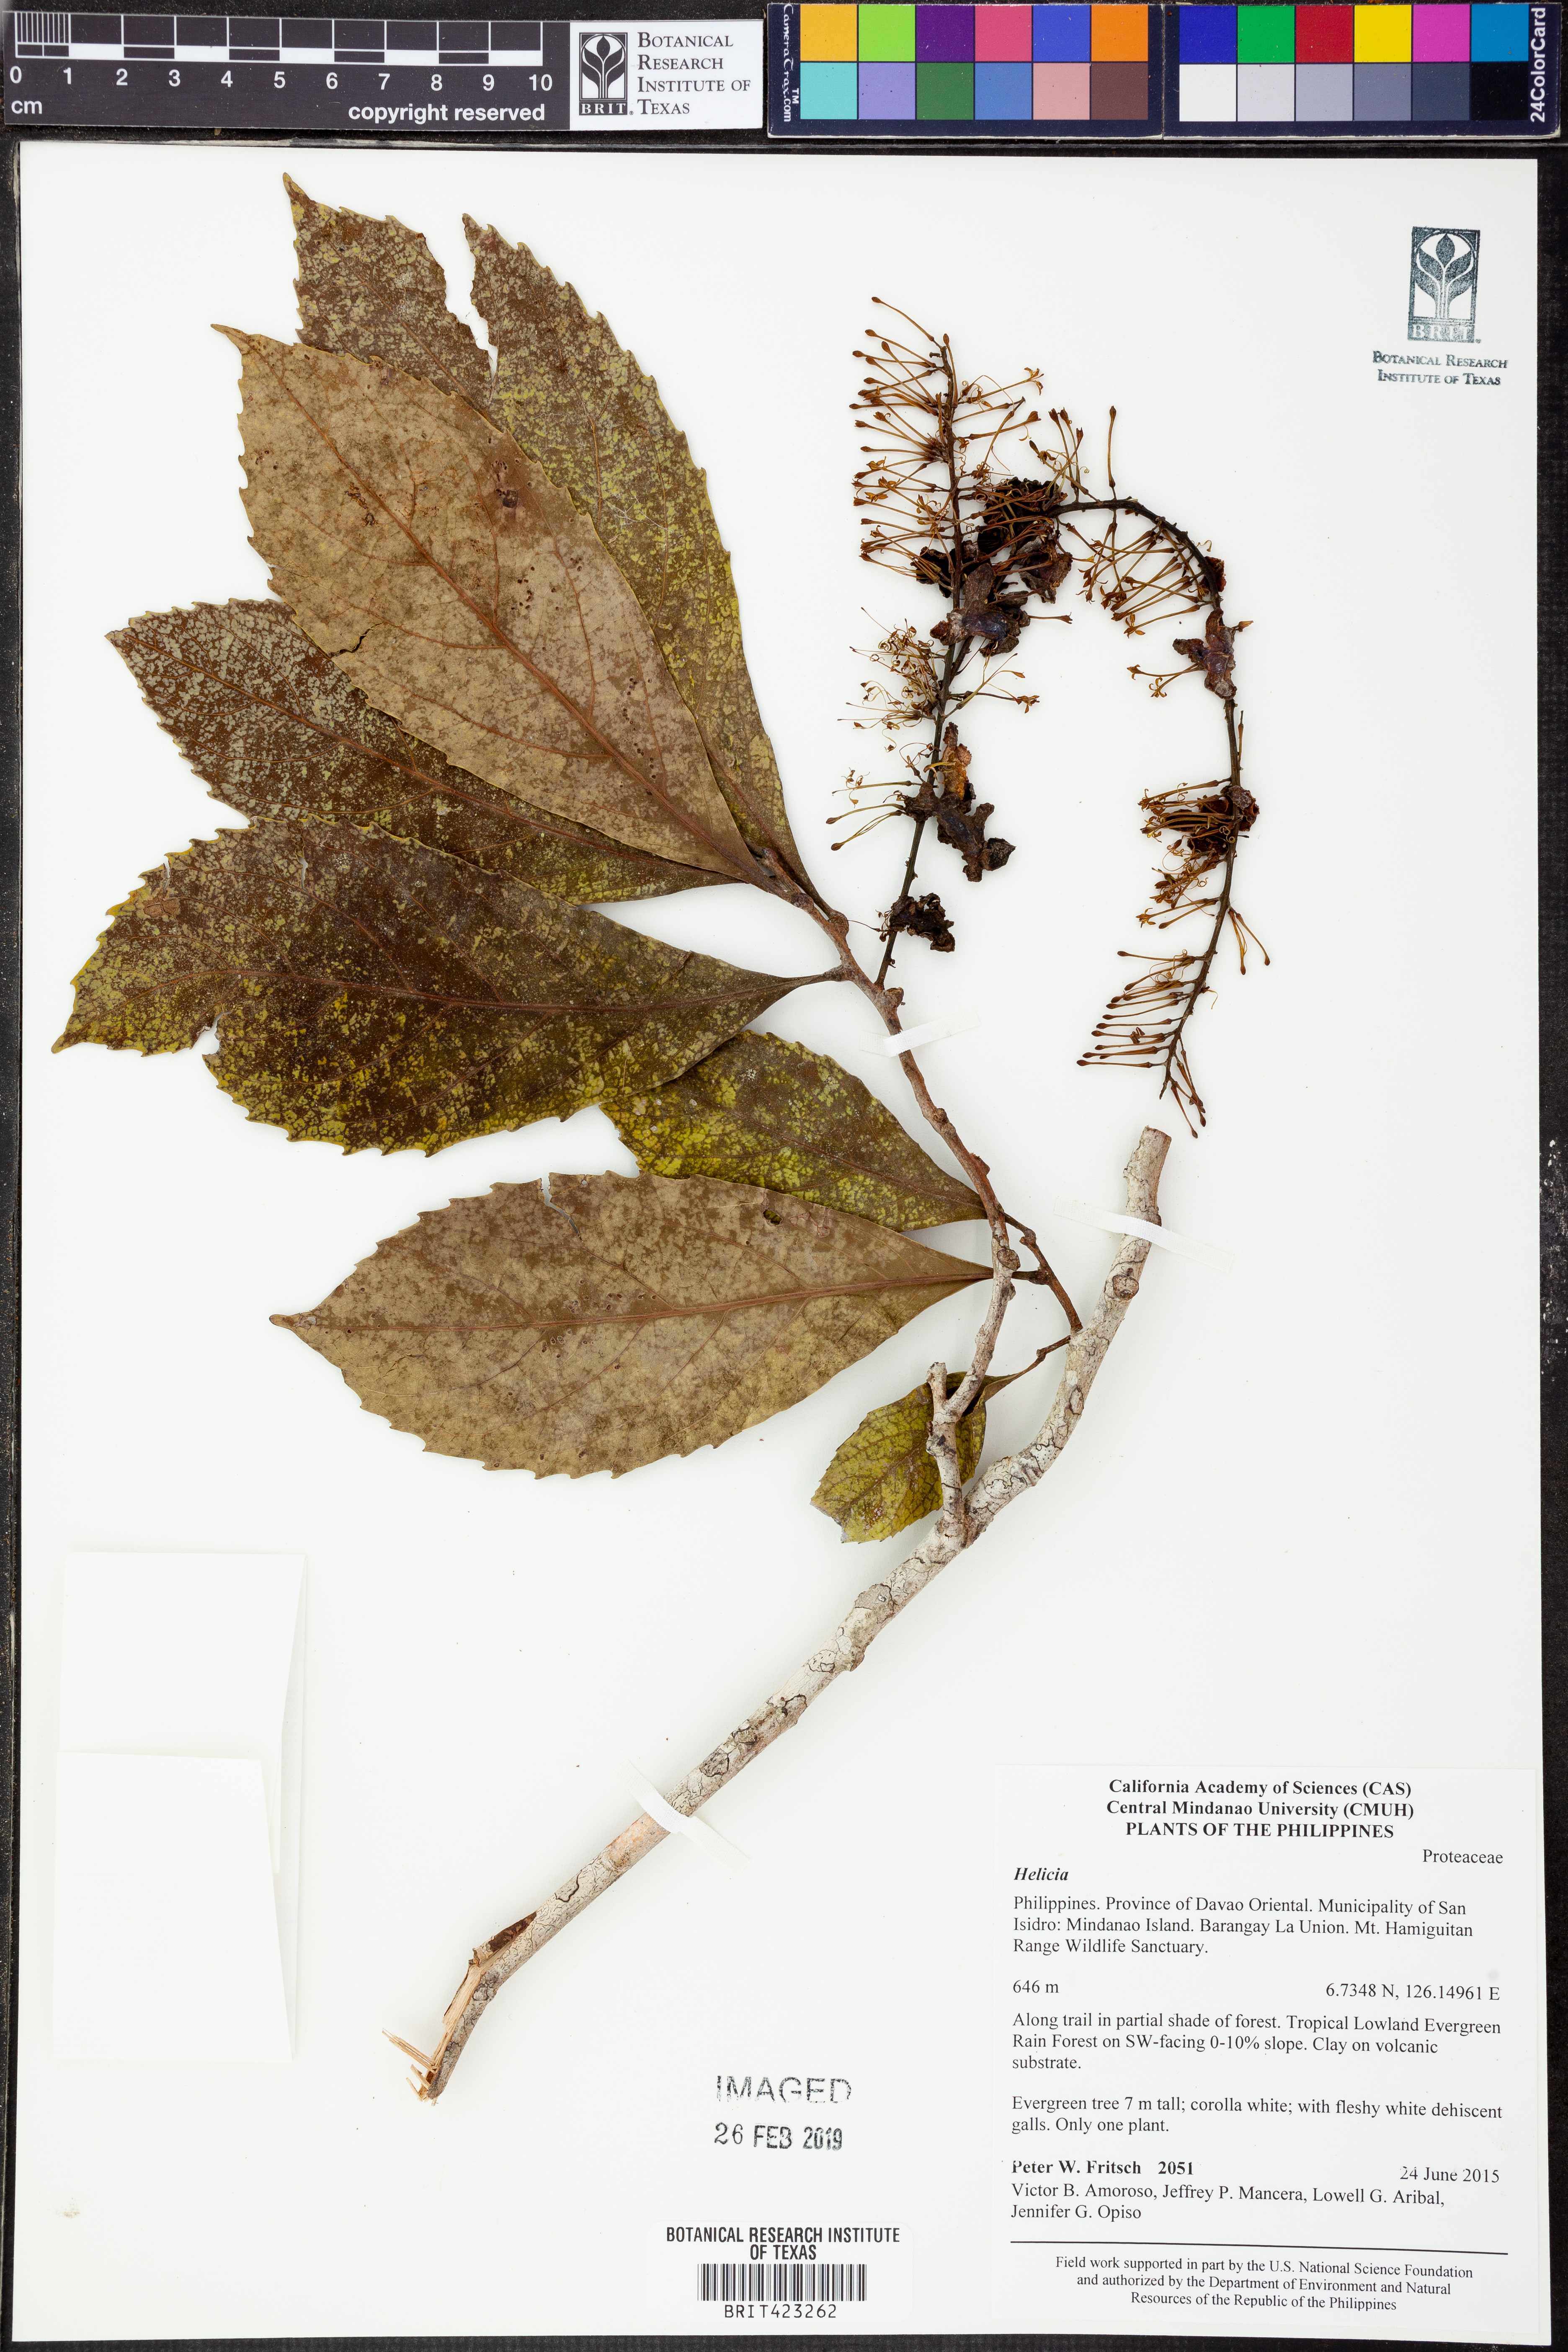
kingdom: Plantae
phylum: Tracheophyta
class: Magnoliopsida
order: Proteales
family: Proteaceae
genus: Helicia
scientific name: Helicia
